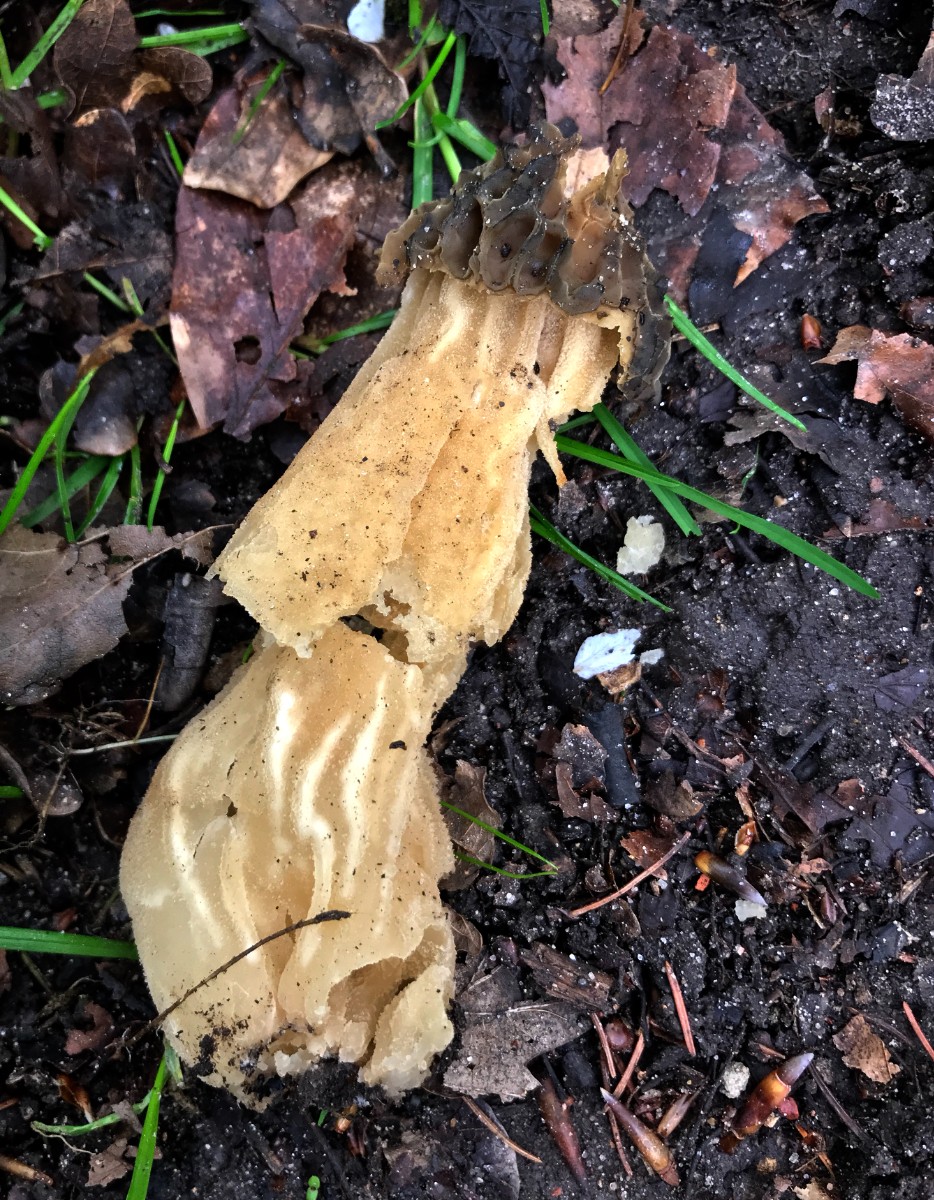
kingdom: Fungi
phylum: Ascomycota
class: Pezizomycetes
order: Pezizales
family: Morchellaceae
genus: Morchella
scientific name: Morchella semilibera
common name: hætte-morkel
